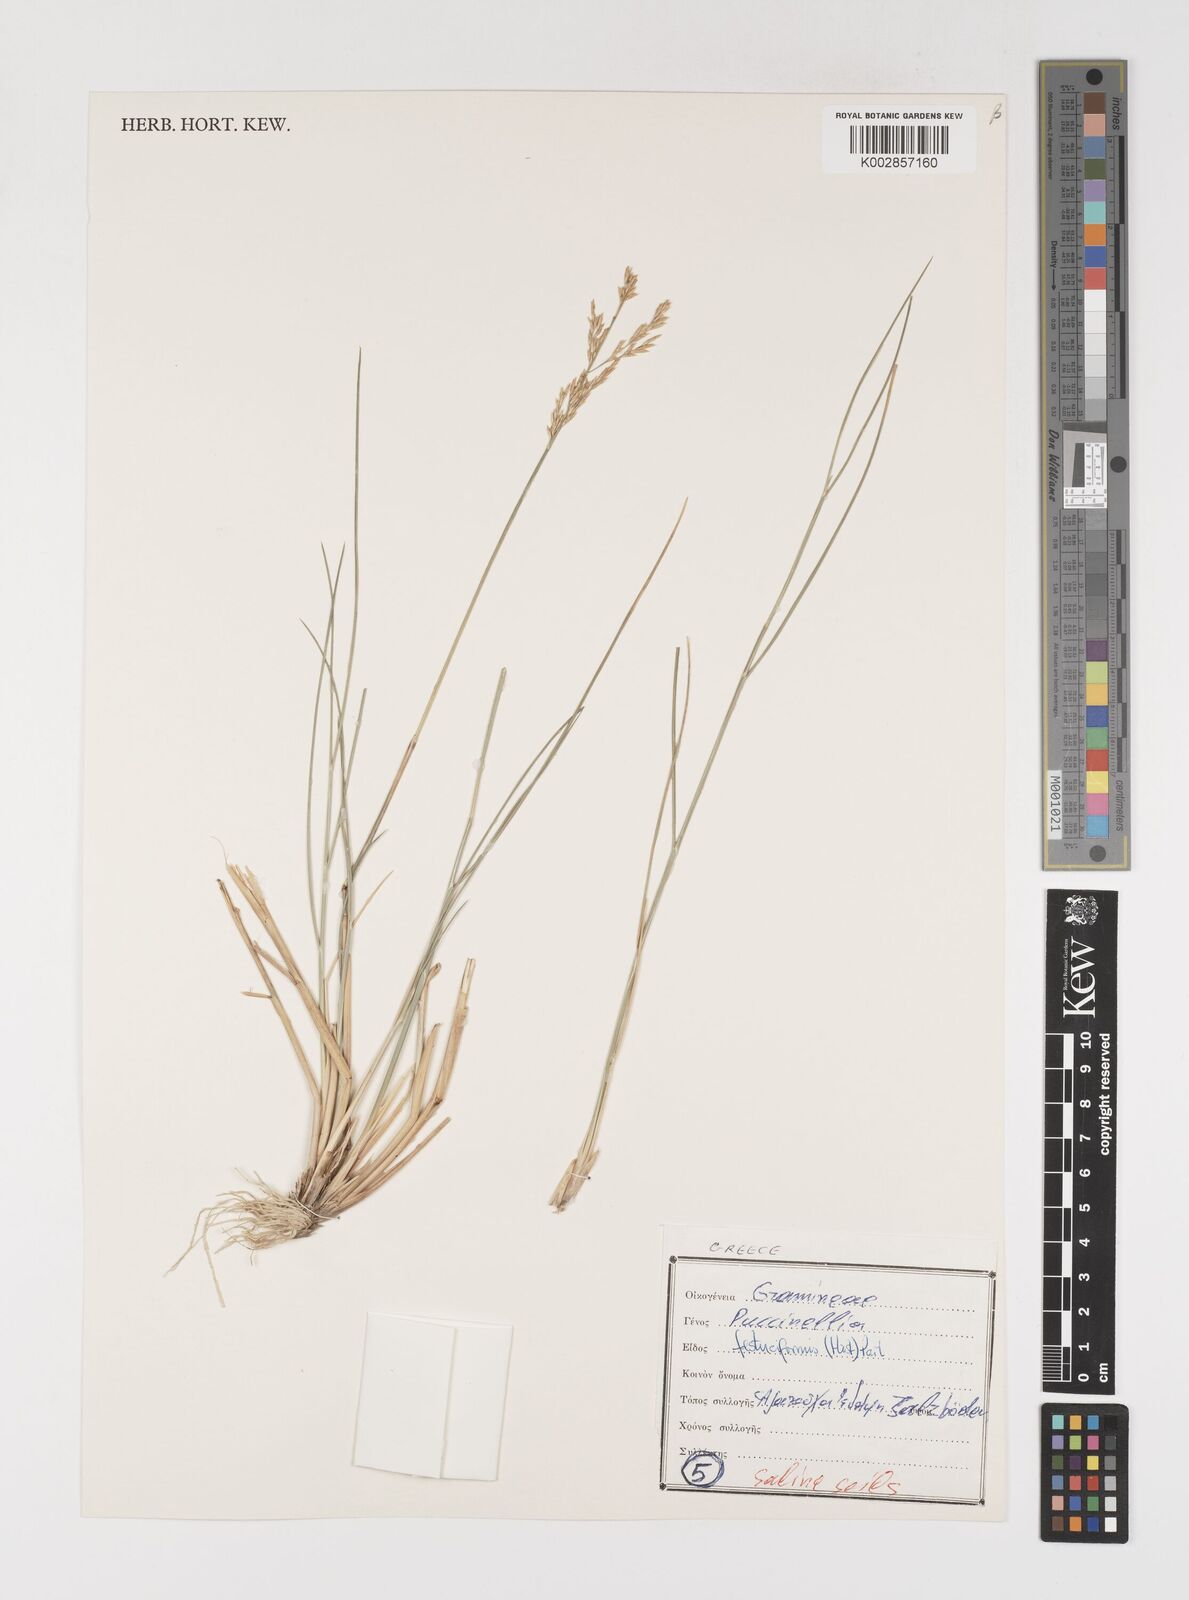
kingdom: Plantae
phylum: Tracheophyta
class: Liliopsida
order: Poales
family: Poaceae
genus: Puccinellia
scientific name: Puccinellia festuciformis
